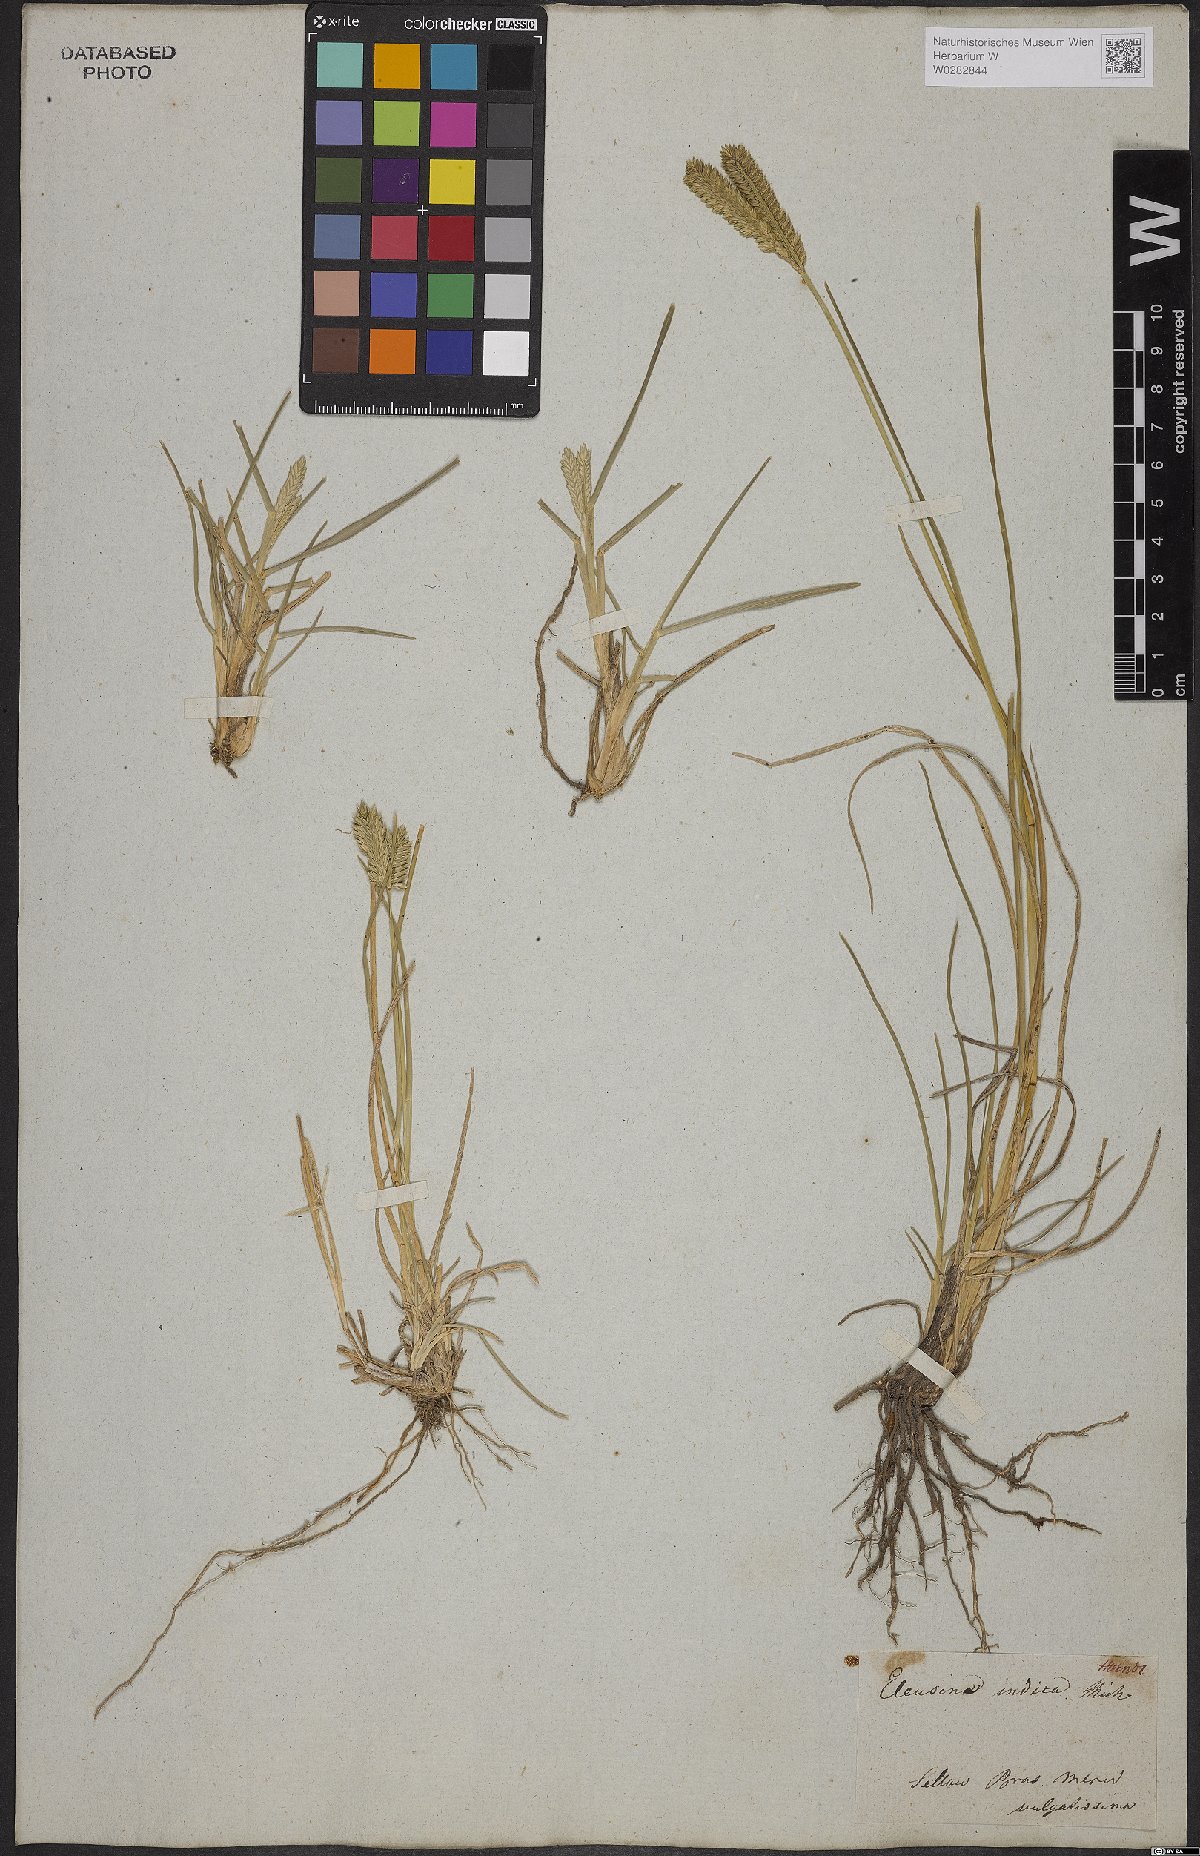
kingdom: Plantae
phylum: Tracheophyta
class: Liliopsida
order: Poales
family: Poaceae
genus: Eleusine
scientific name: Eleusine indica
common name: Yard-grass
